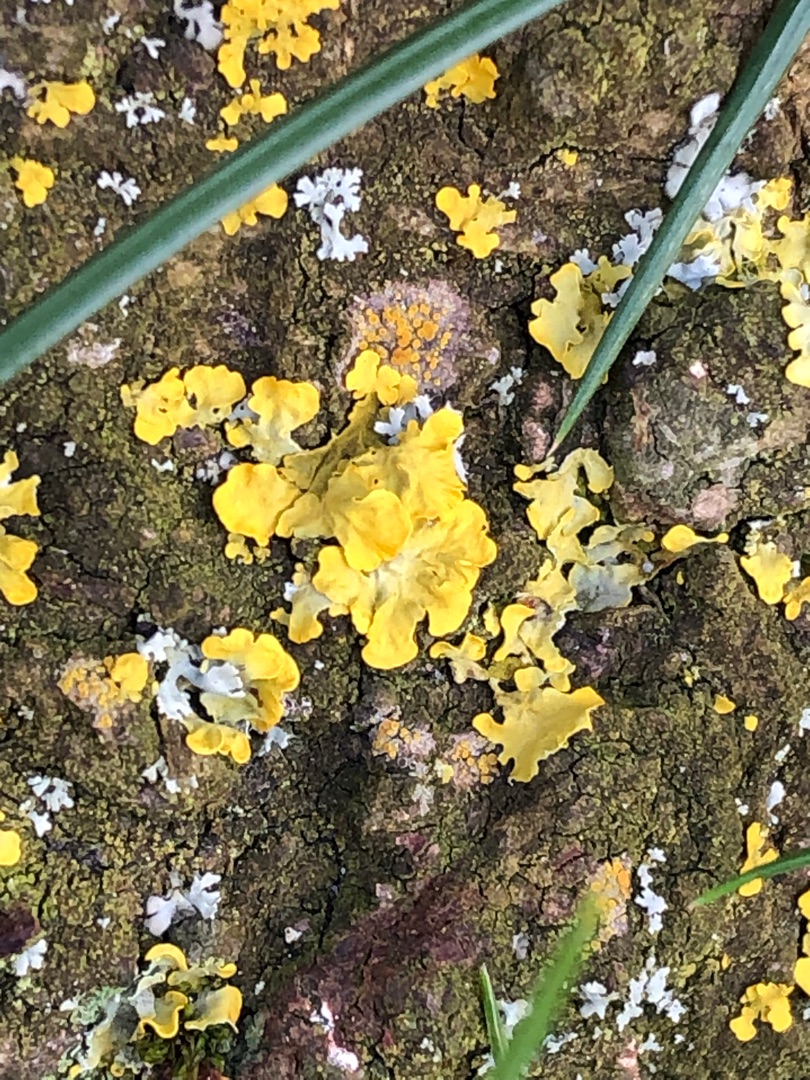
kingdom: Fungi
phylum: Ascomycota
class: Lecanoromycetes
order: Teloschistales
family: Teloschistaceae
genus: Xanthoria
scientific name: Xanthoria parietina
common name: Almindelig væggelav
